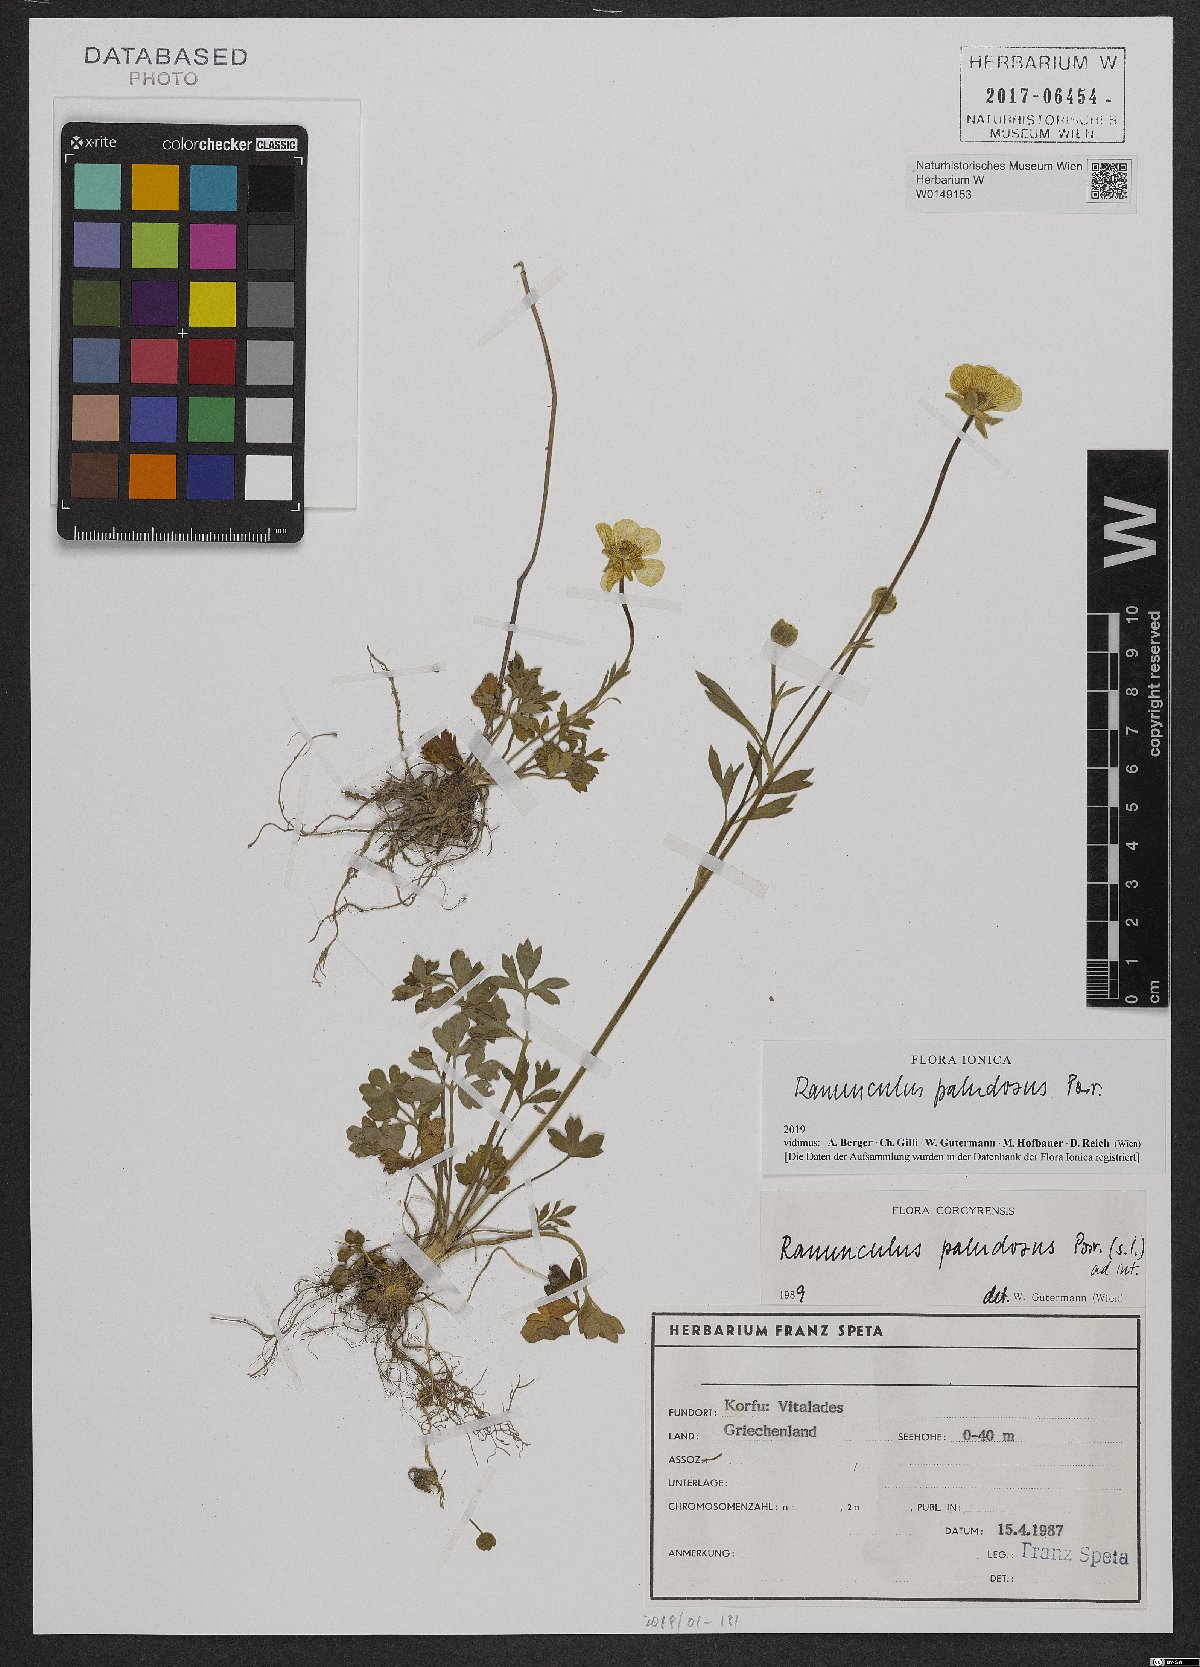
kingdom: Plantae
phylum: Tracheophyta
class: Magnoliopsida
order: Ranunculales
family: Ranunculaceae
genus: Ranunculus
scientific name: Ranunculus paludosus
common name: Jersey buttercup
